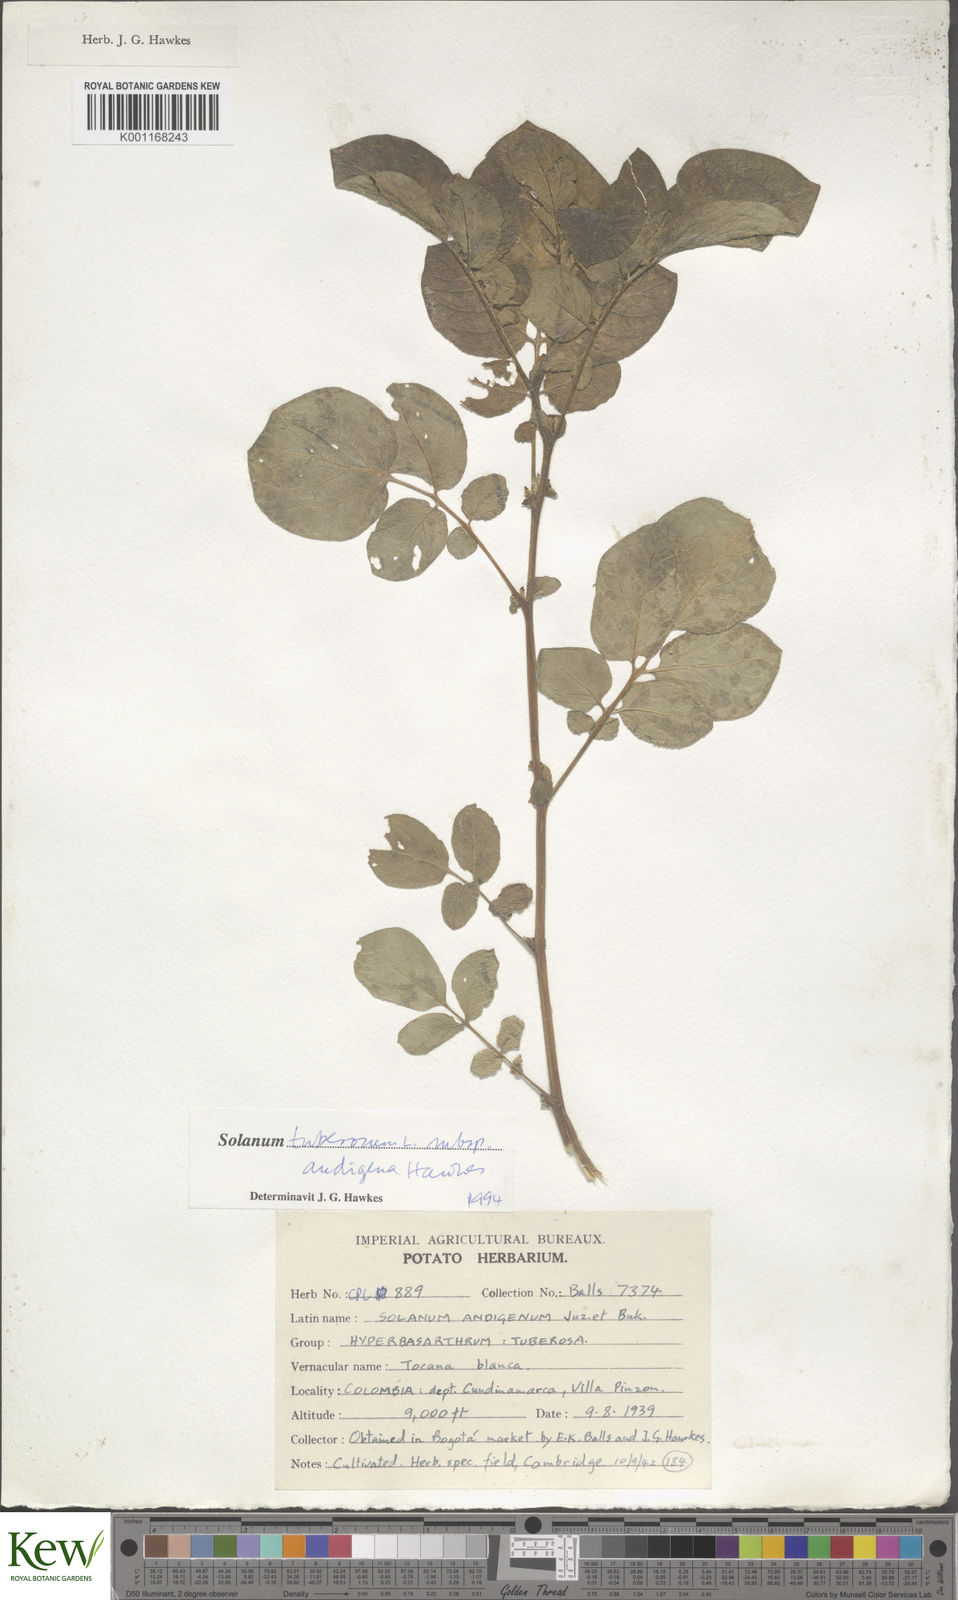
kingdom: Plantae
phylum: Tracheophyta
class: Magnoliopsida
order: Solanales
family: Solanaceae
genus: Solanum
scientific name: Solanum tuberosum
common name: Potato
